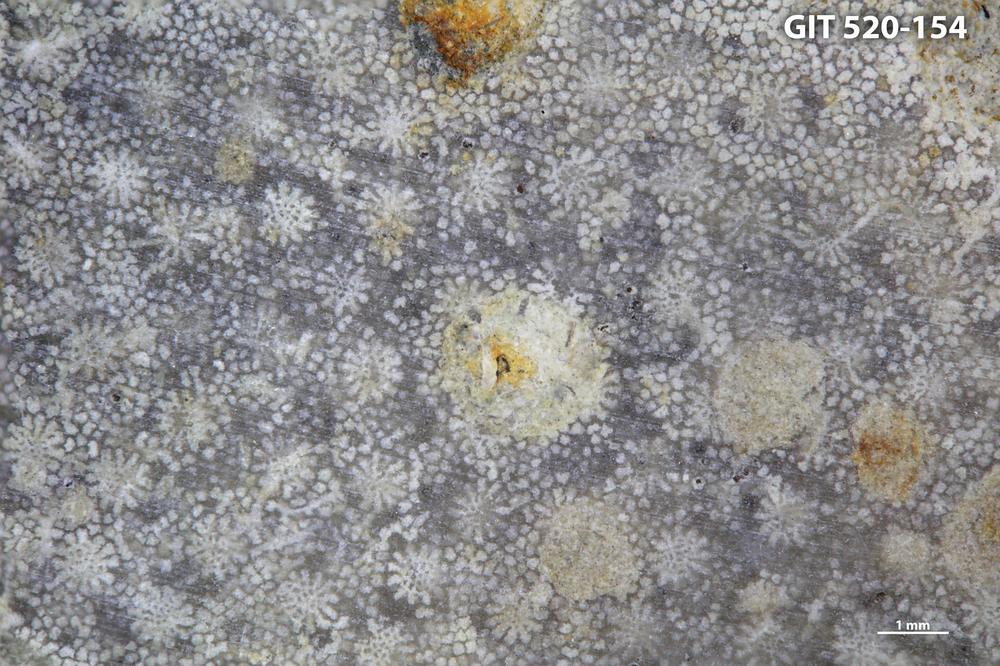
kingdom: Animalia
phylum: Cnidaria
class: Anthozoa
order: Heliolitina
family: Heliolitidae
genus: Esthonia
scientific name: Esthonia
